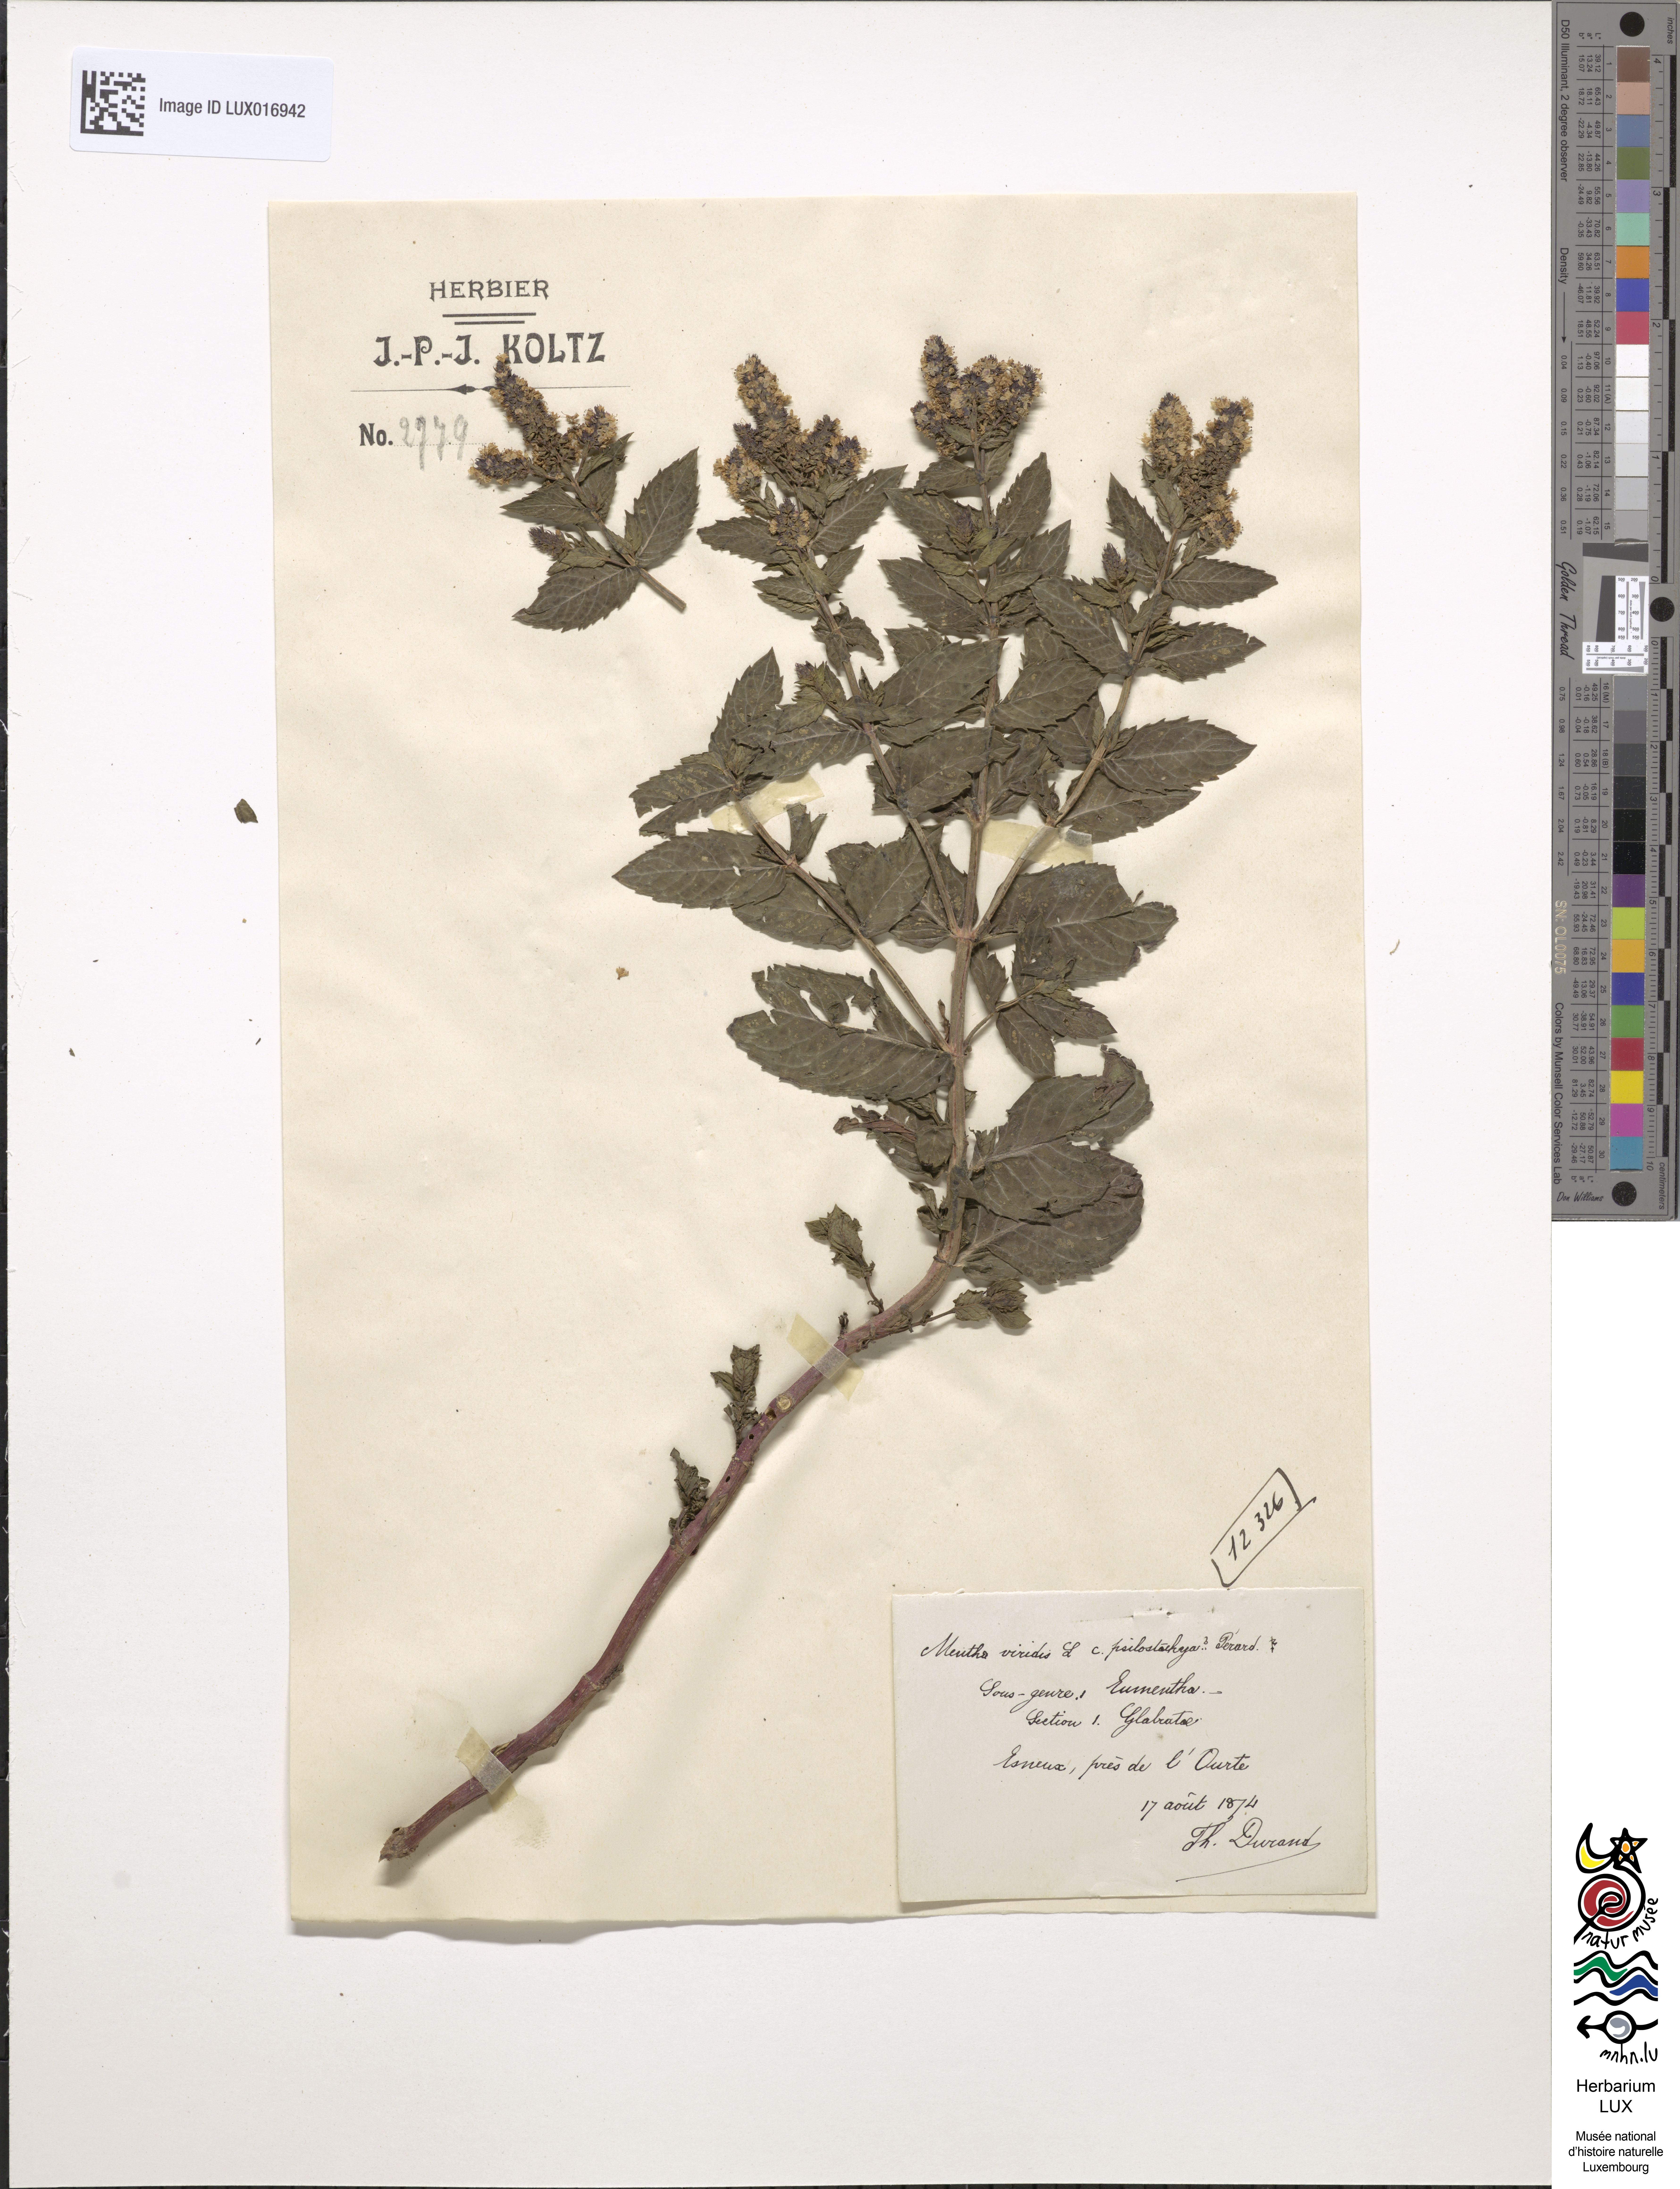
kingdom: Plantae
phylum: Tracheophyta
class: Magnoliopsida
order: Lamiales
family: Lamiaceae
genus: Mentha
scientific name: Mentha spicata
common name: Spearmint
